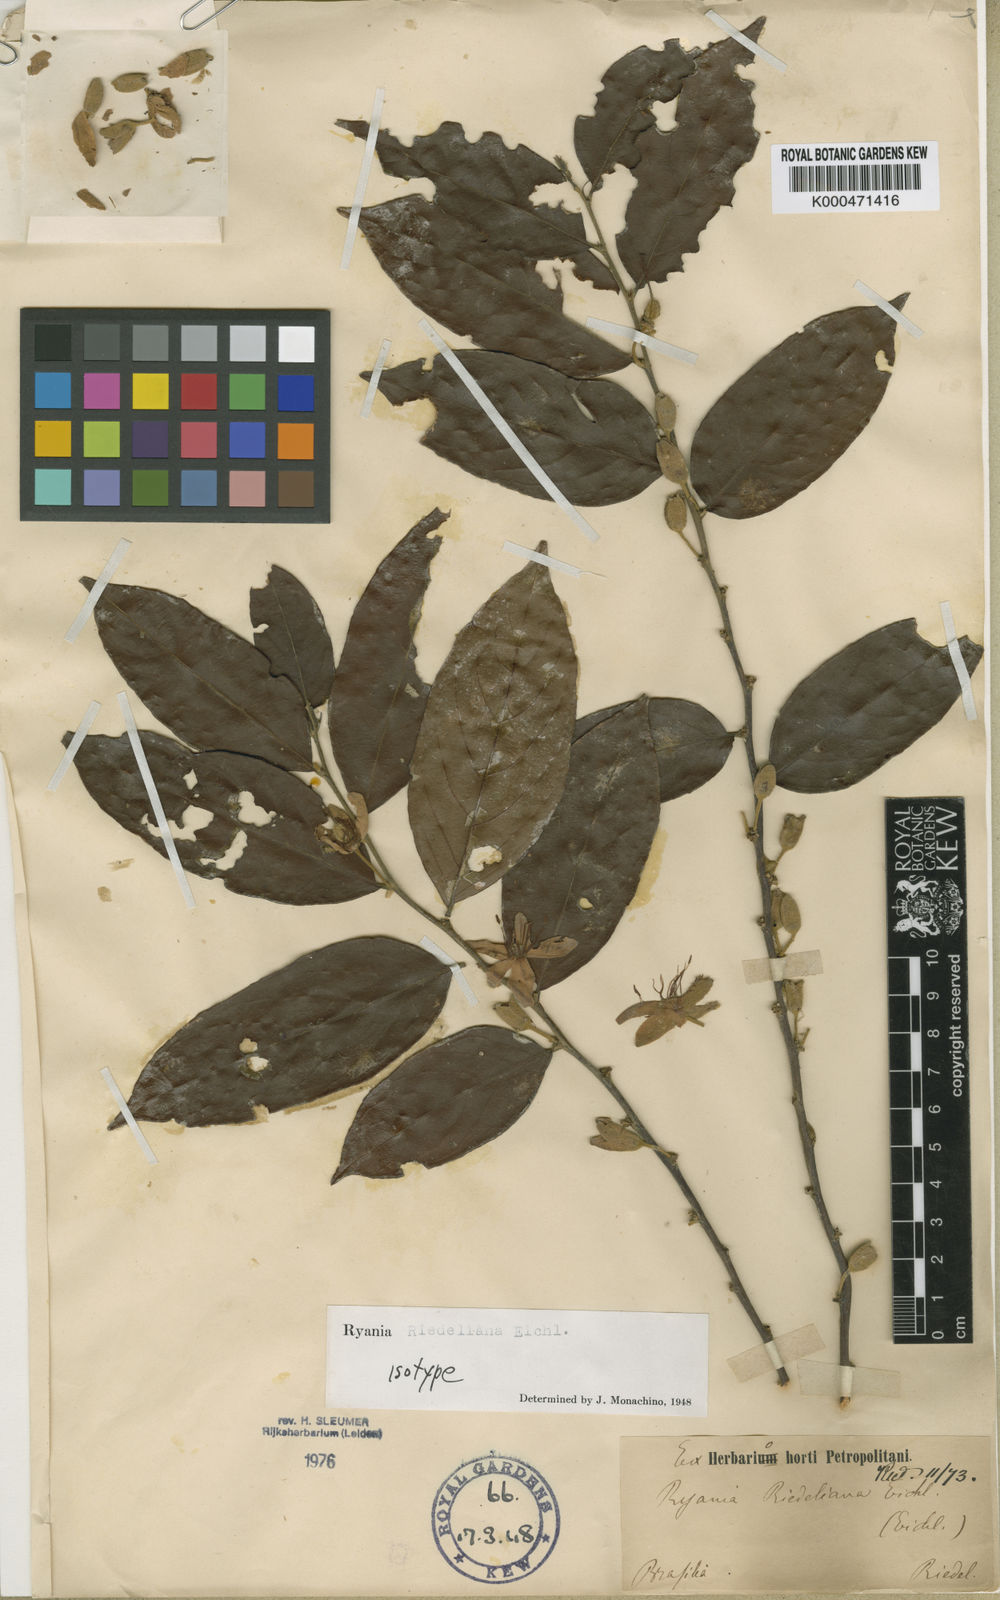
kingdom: Plantae
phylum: Tracheophyta
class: Magnoliopsida
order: Malpighiales
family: Salicaceae
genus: Ryania
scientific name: Ryania riedeliana
